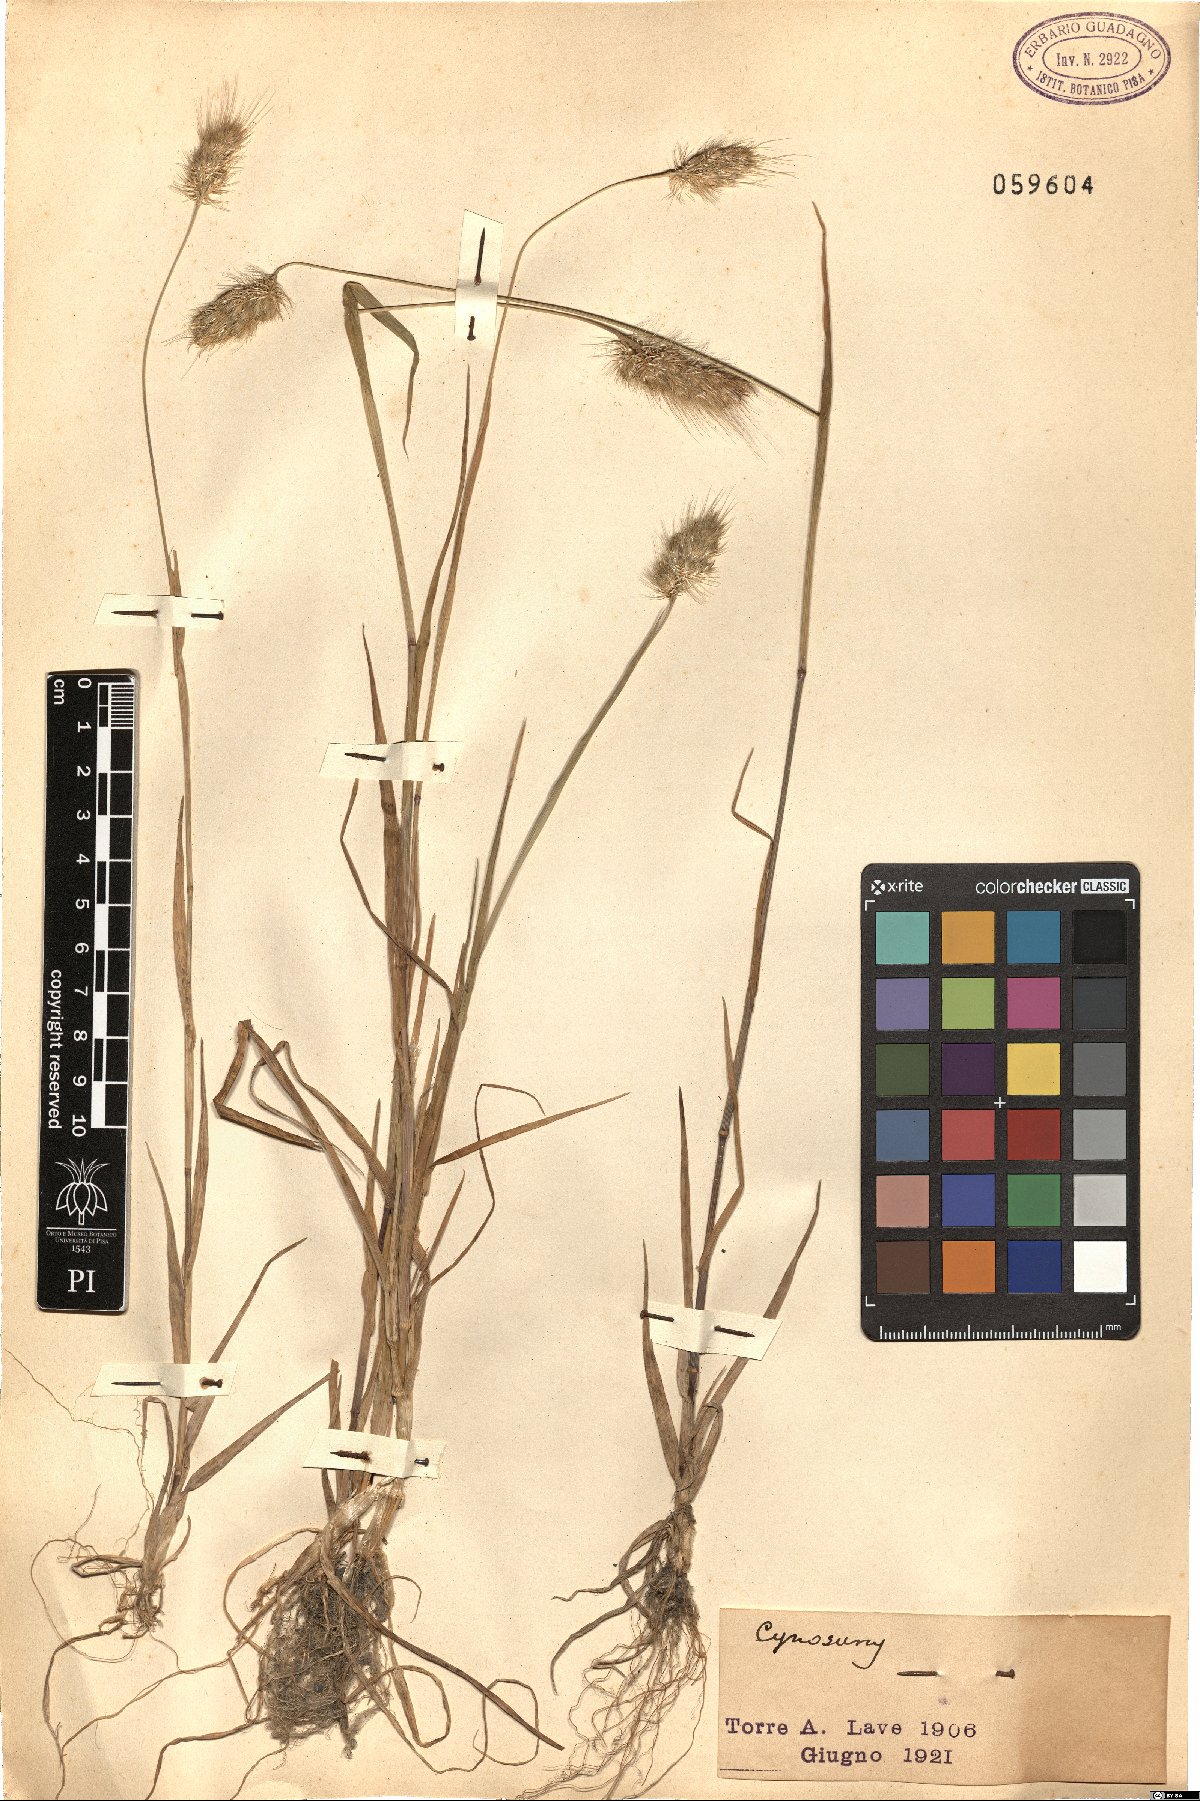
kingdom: Plantae
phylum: Tracheophyta
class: Liliopsida
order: Poales
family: Poaceae
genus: Cynosurus
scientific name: Cynosurus
